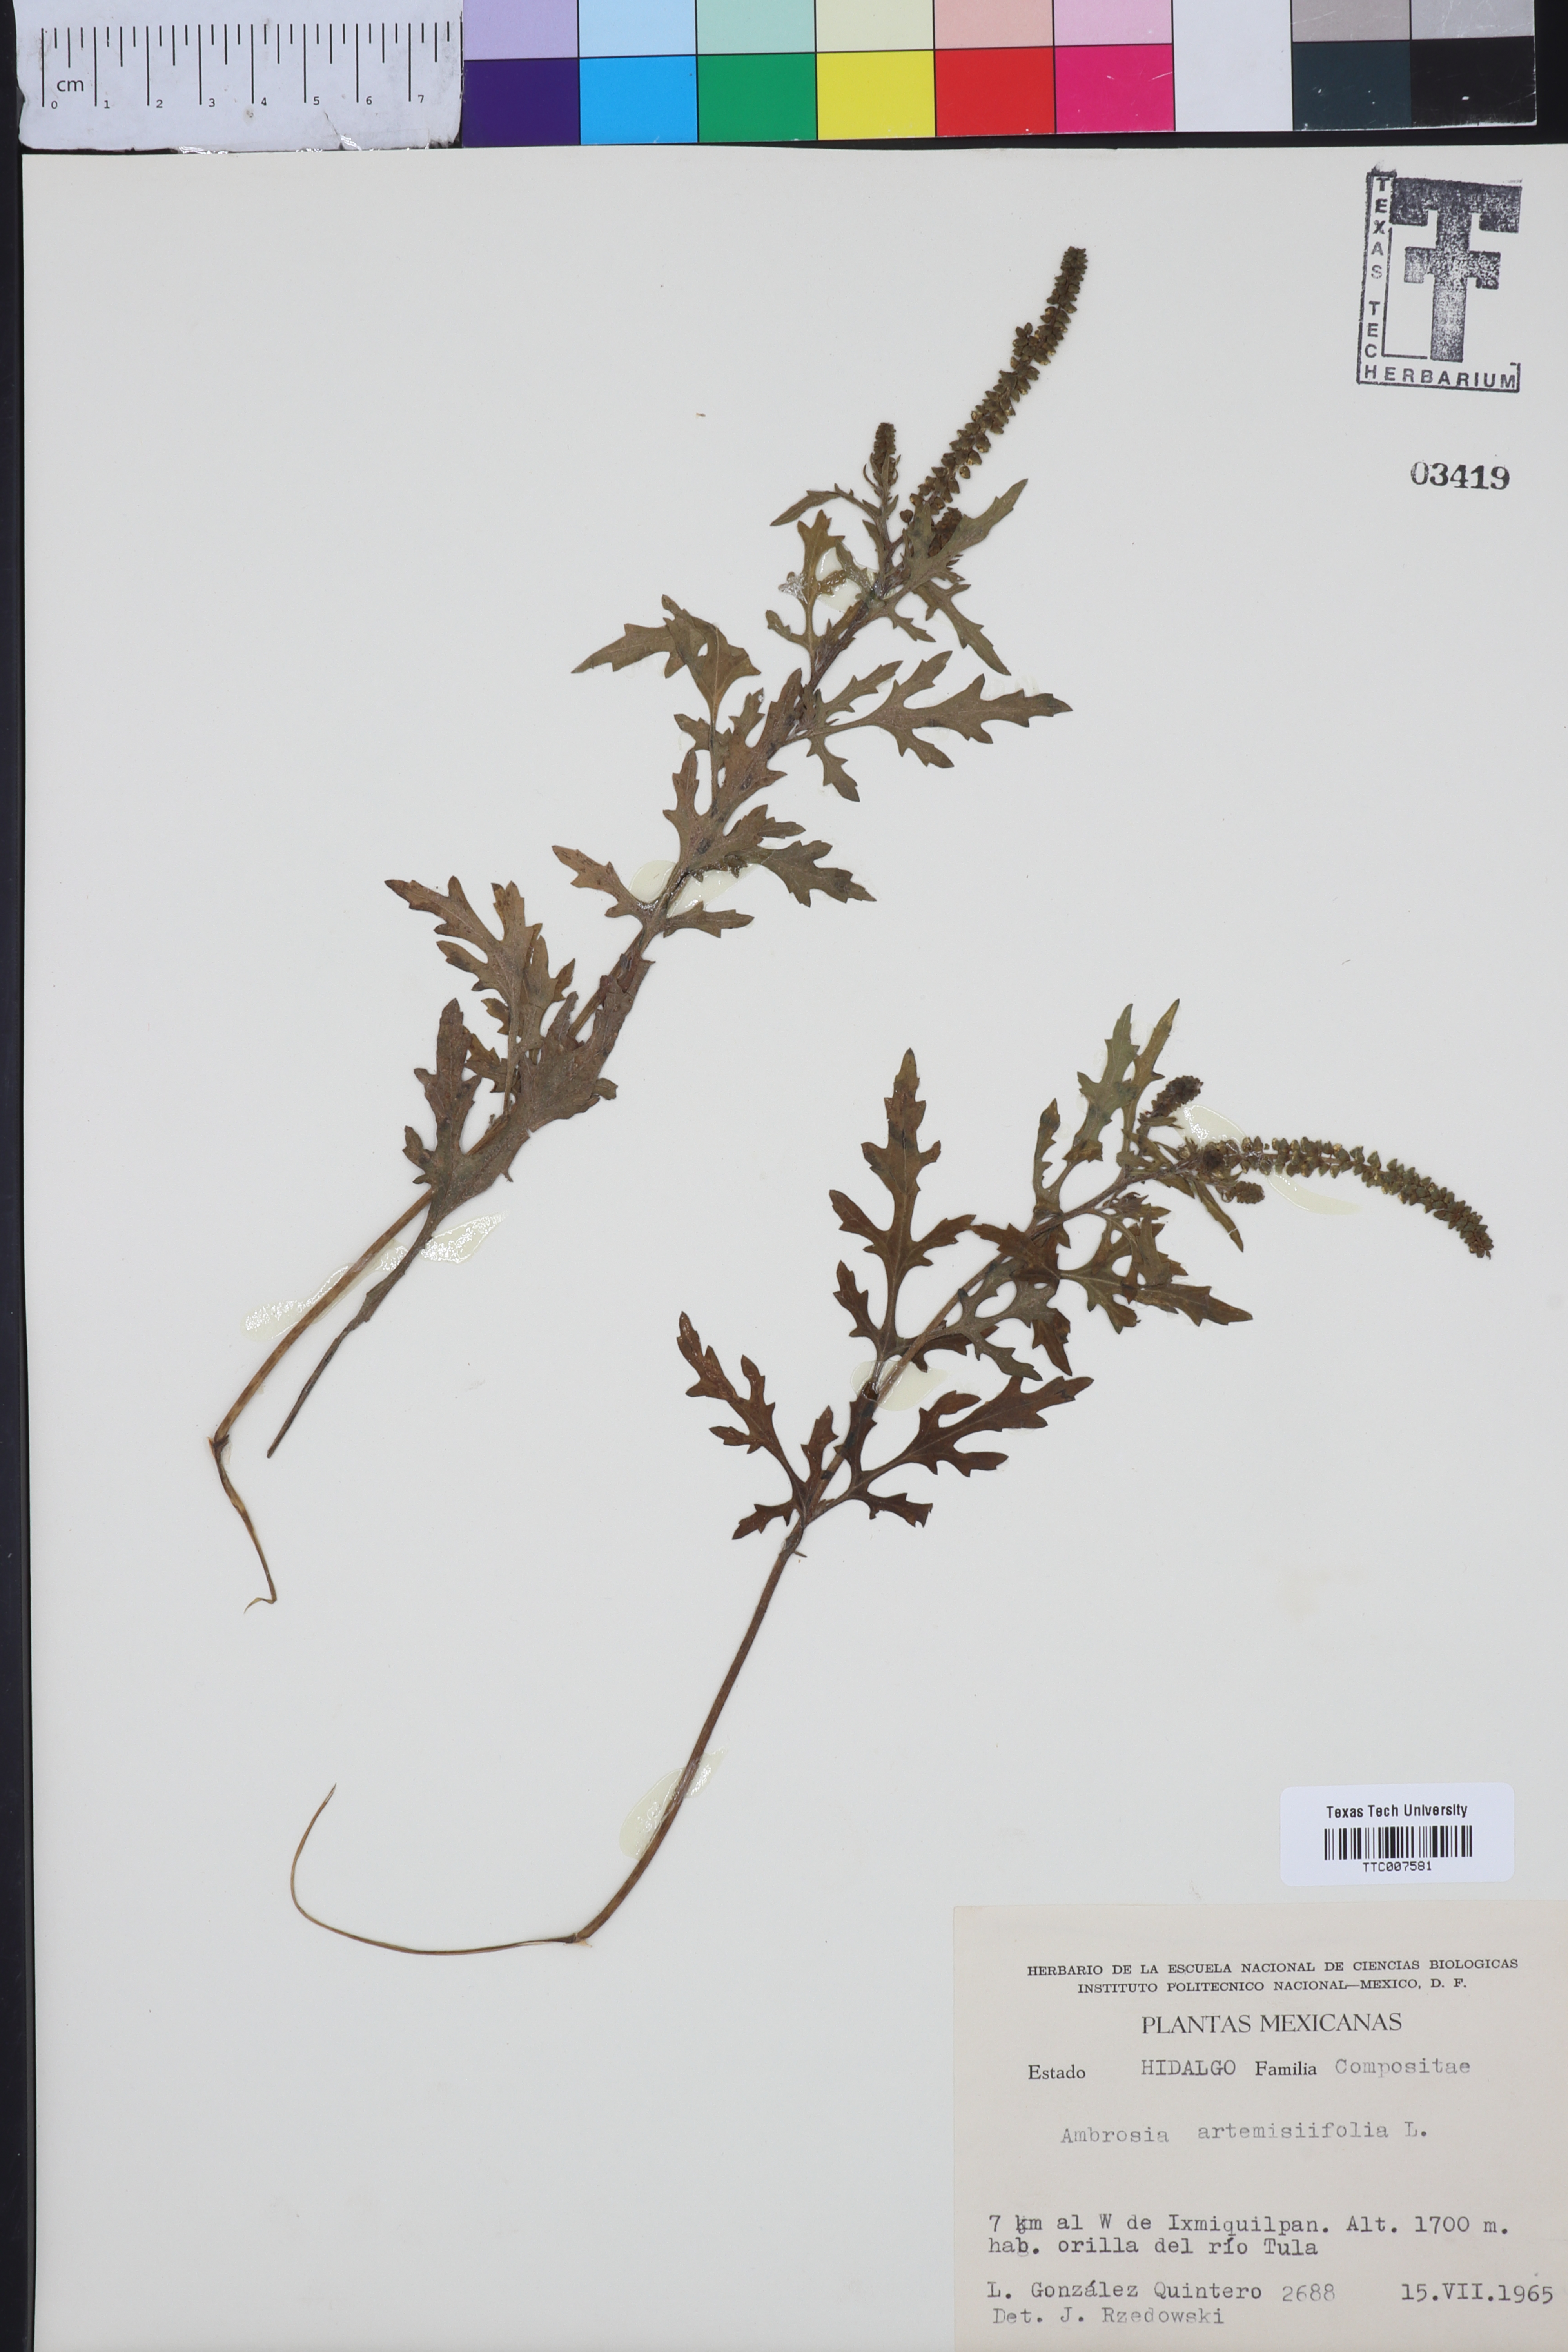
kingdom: Plantae
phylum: Tracheophyta
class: Magnoliopsida
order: Asterales
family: Asteraceae
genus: Ambrosia
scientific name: Ambrosia artemisiifolia
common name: Annual ragweed
